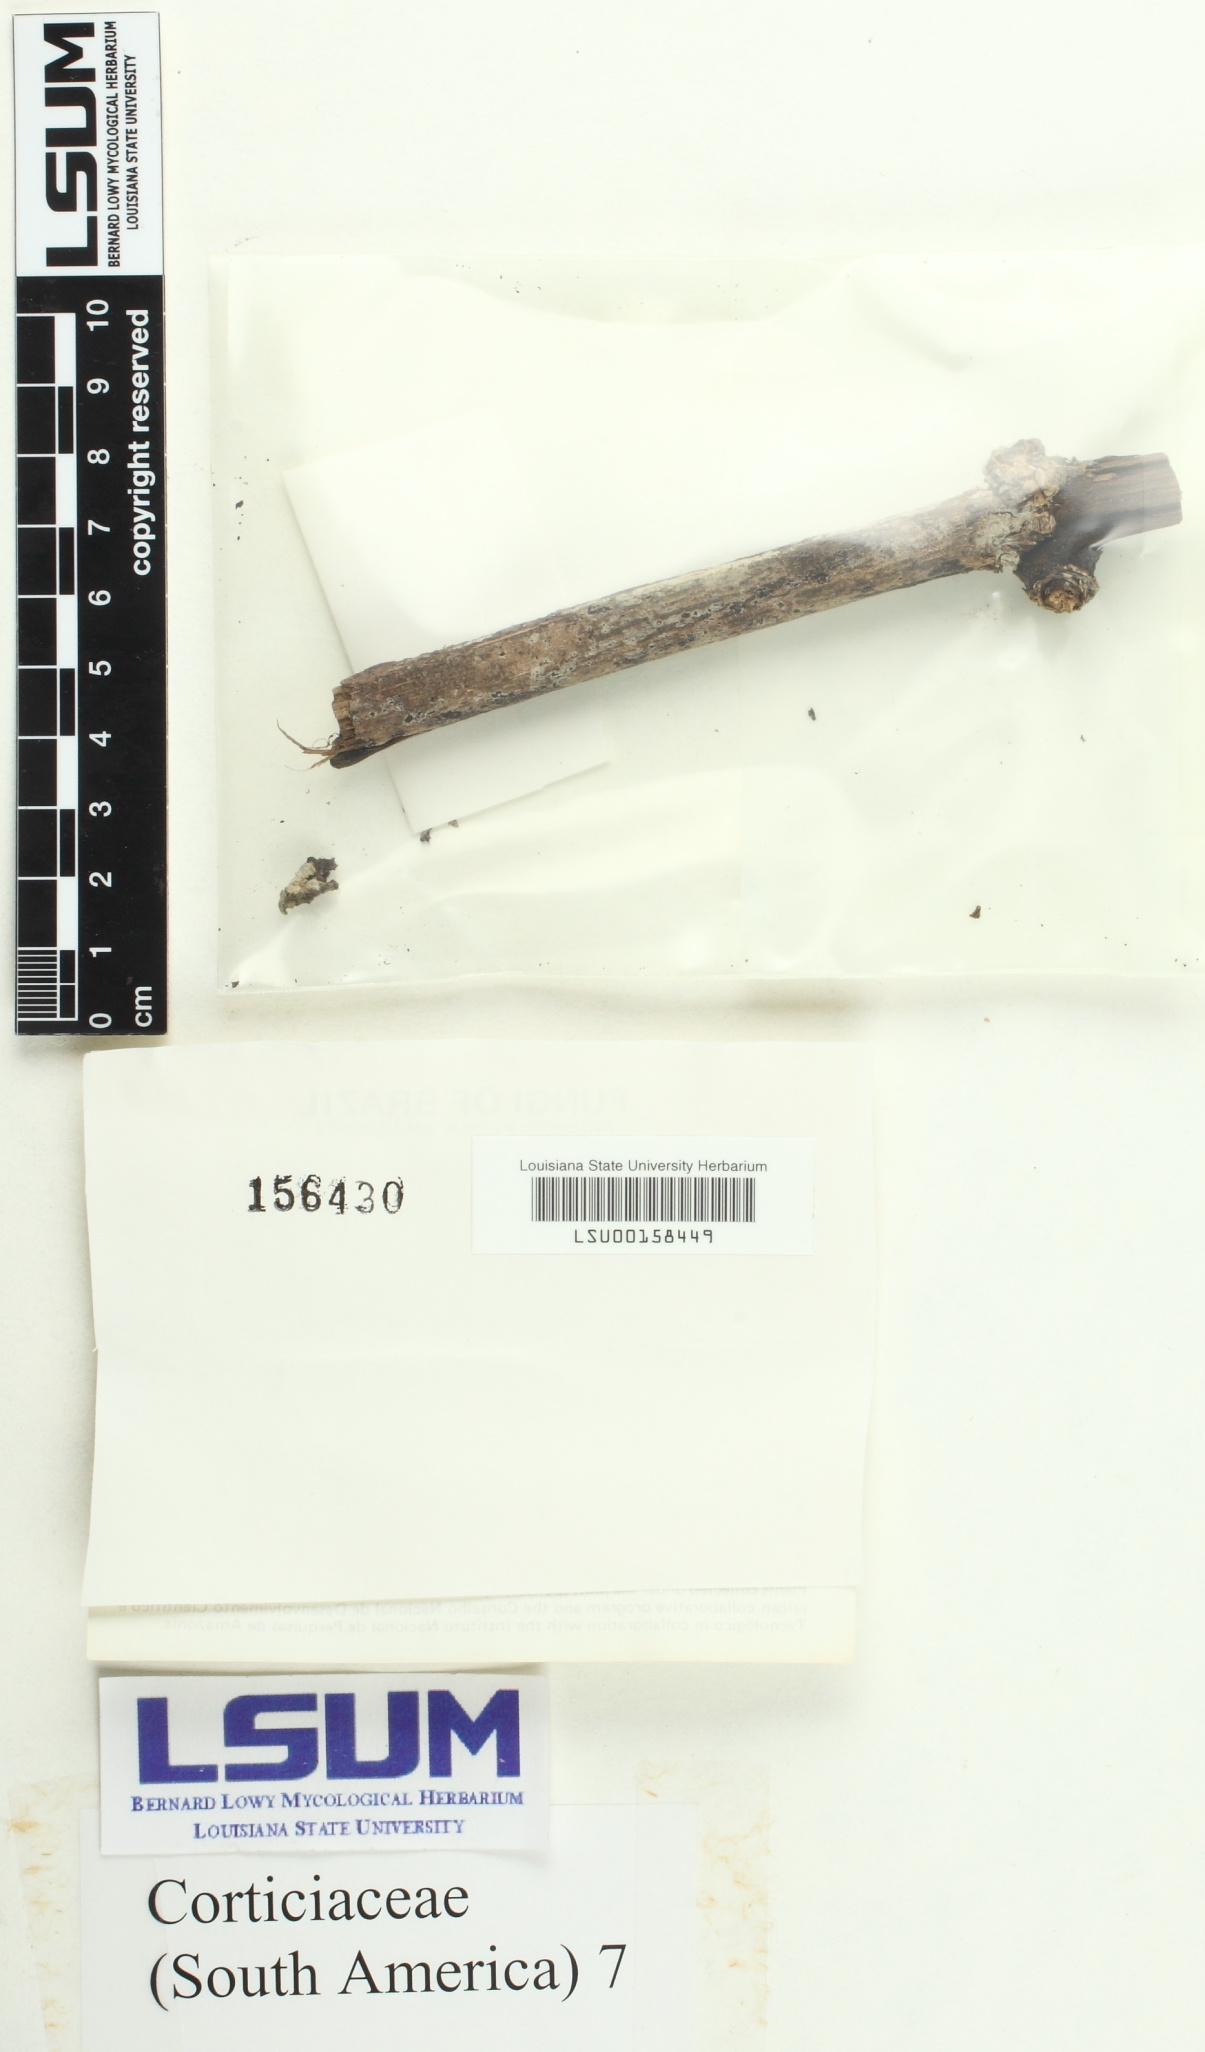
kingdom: Fungi
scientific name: Fungi
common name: Fungi
